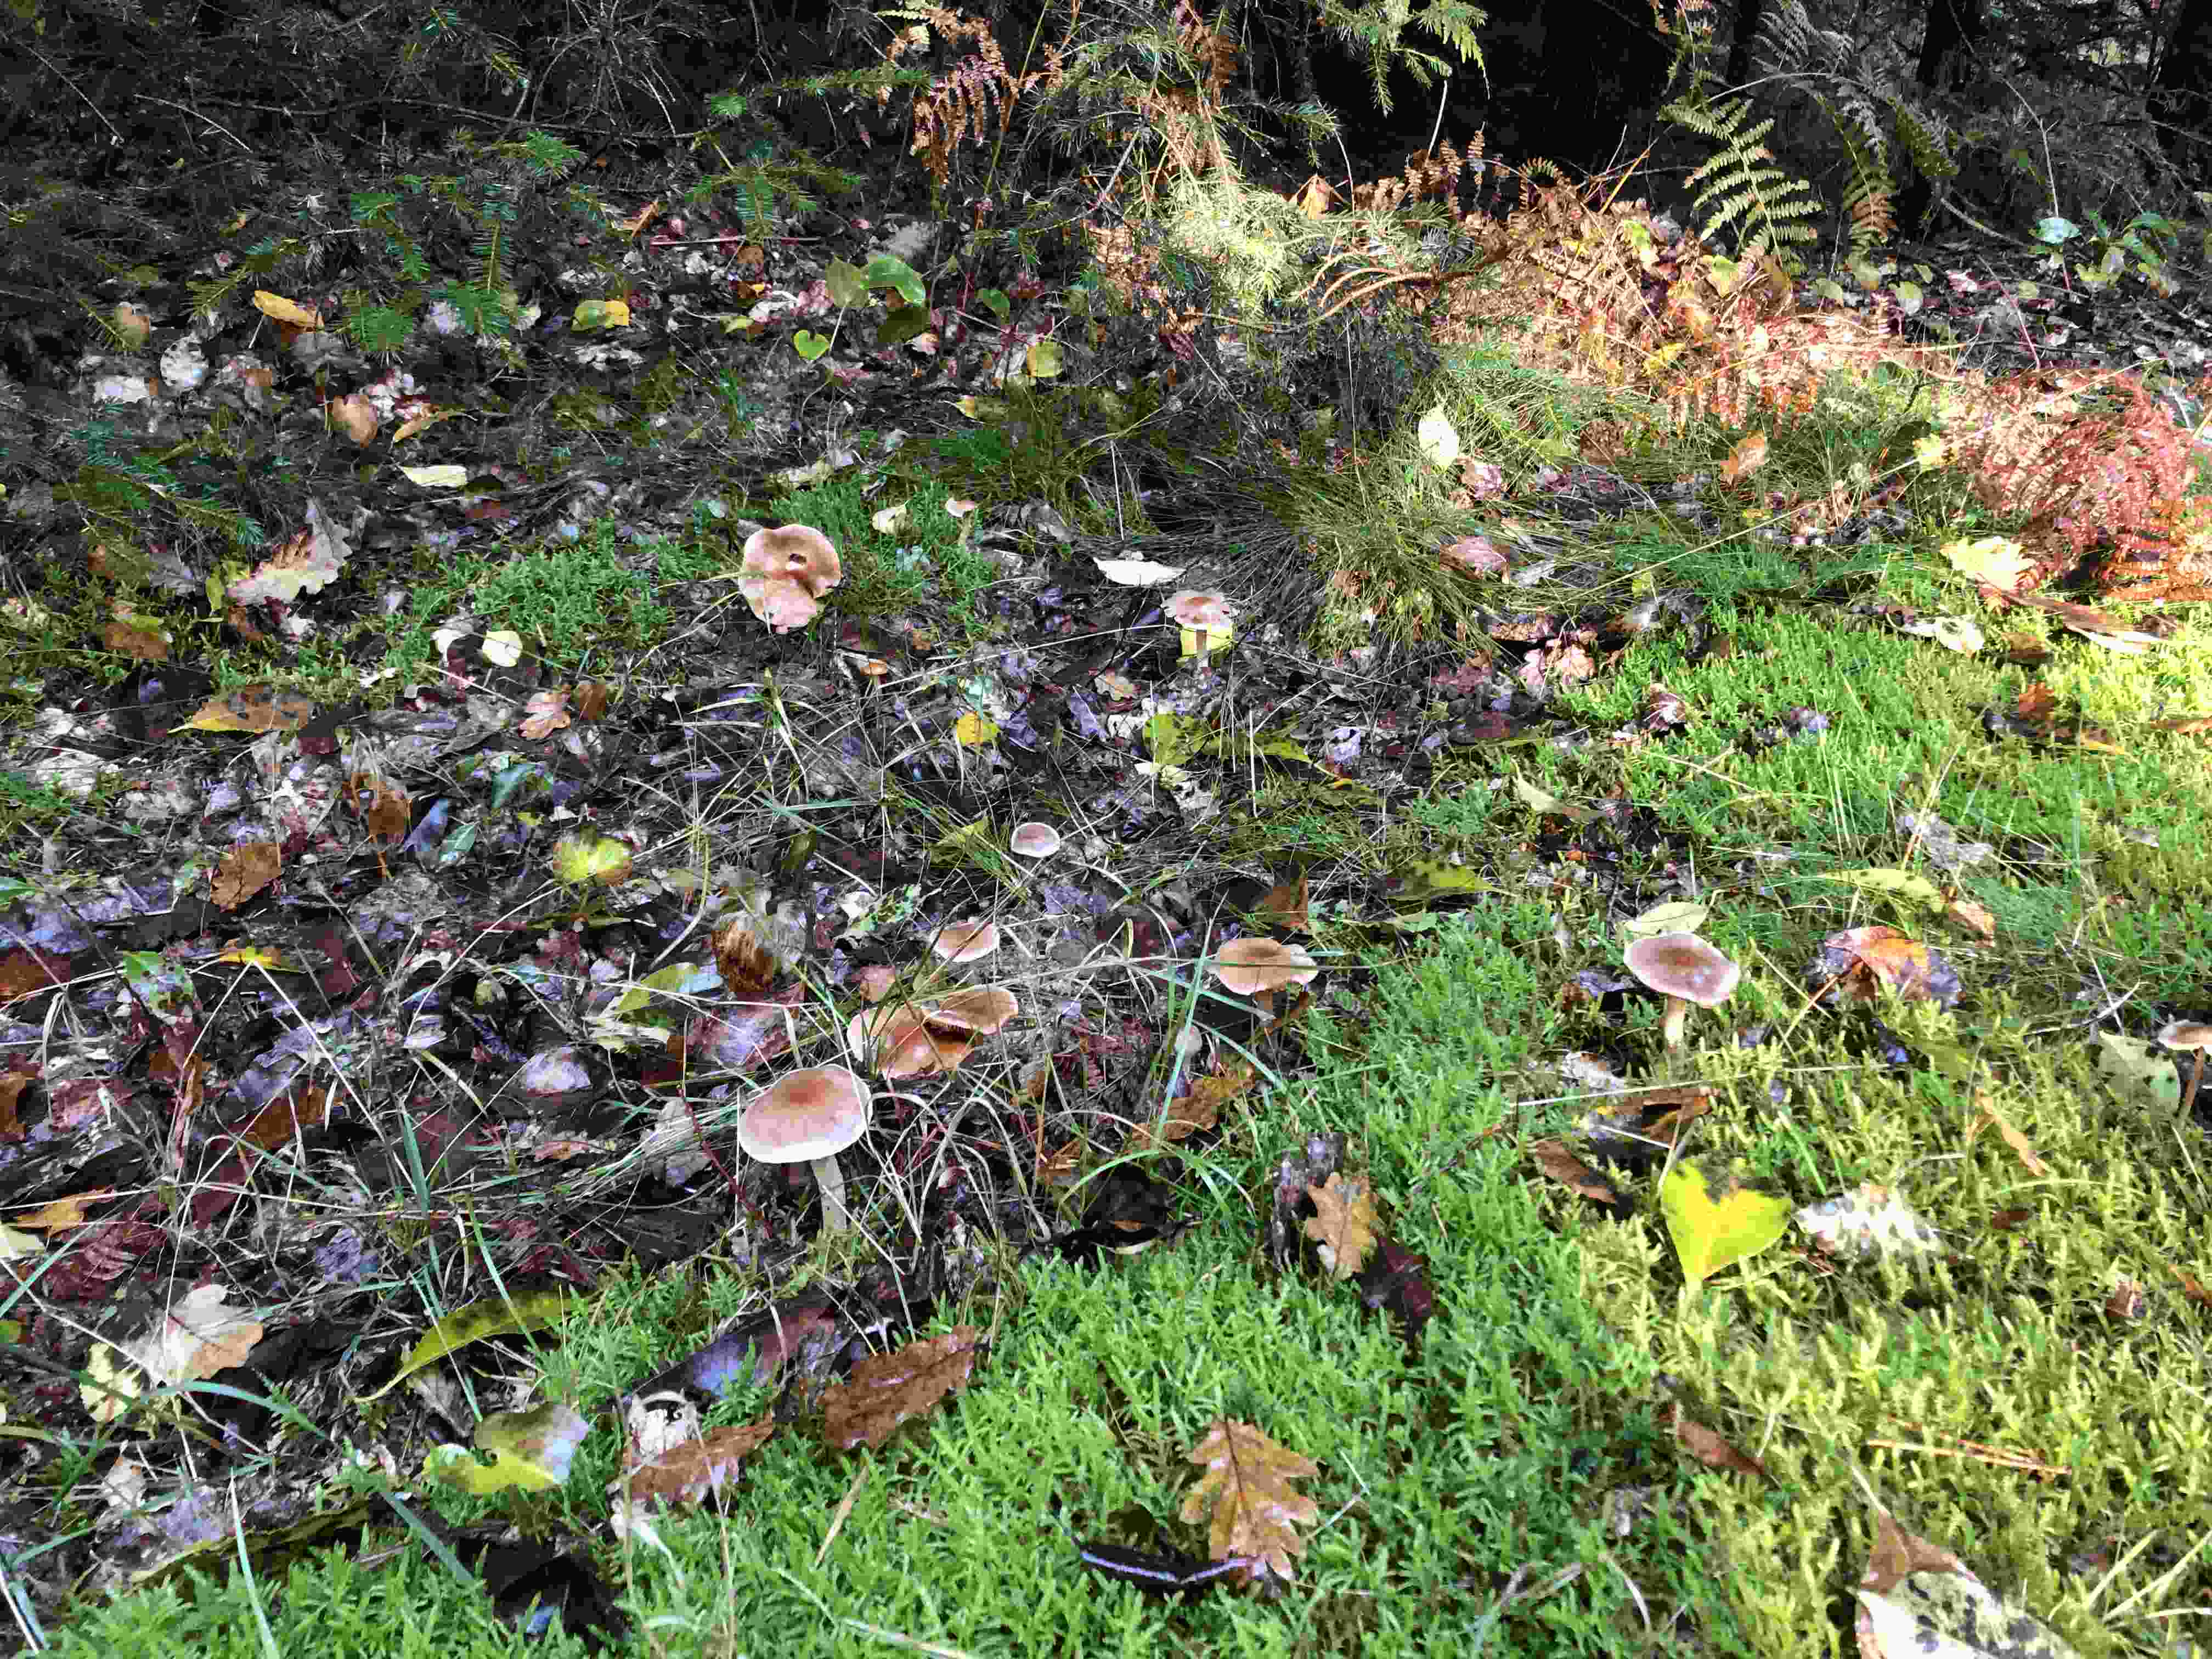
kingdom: Fungi
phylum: Basidiomycota
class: Agaricomycetes
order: Agaricales
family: Cortinariaceae
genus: Cortinarius
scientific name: Cortinarius
